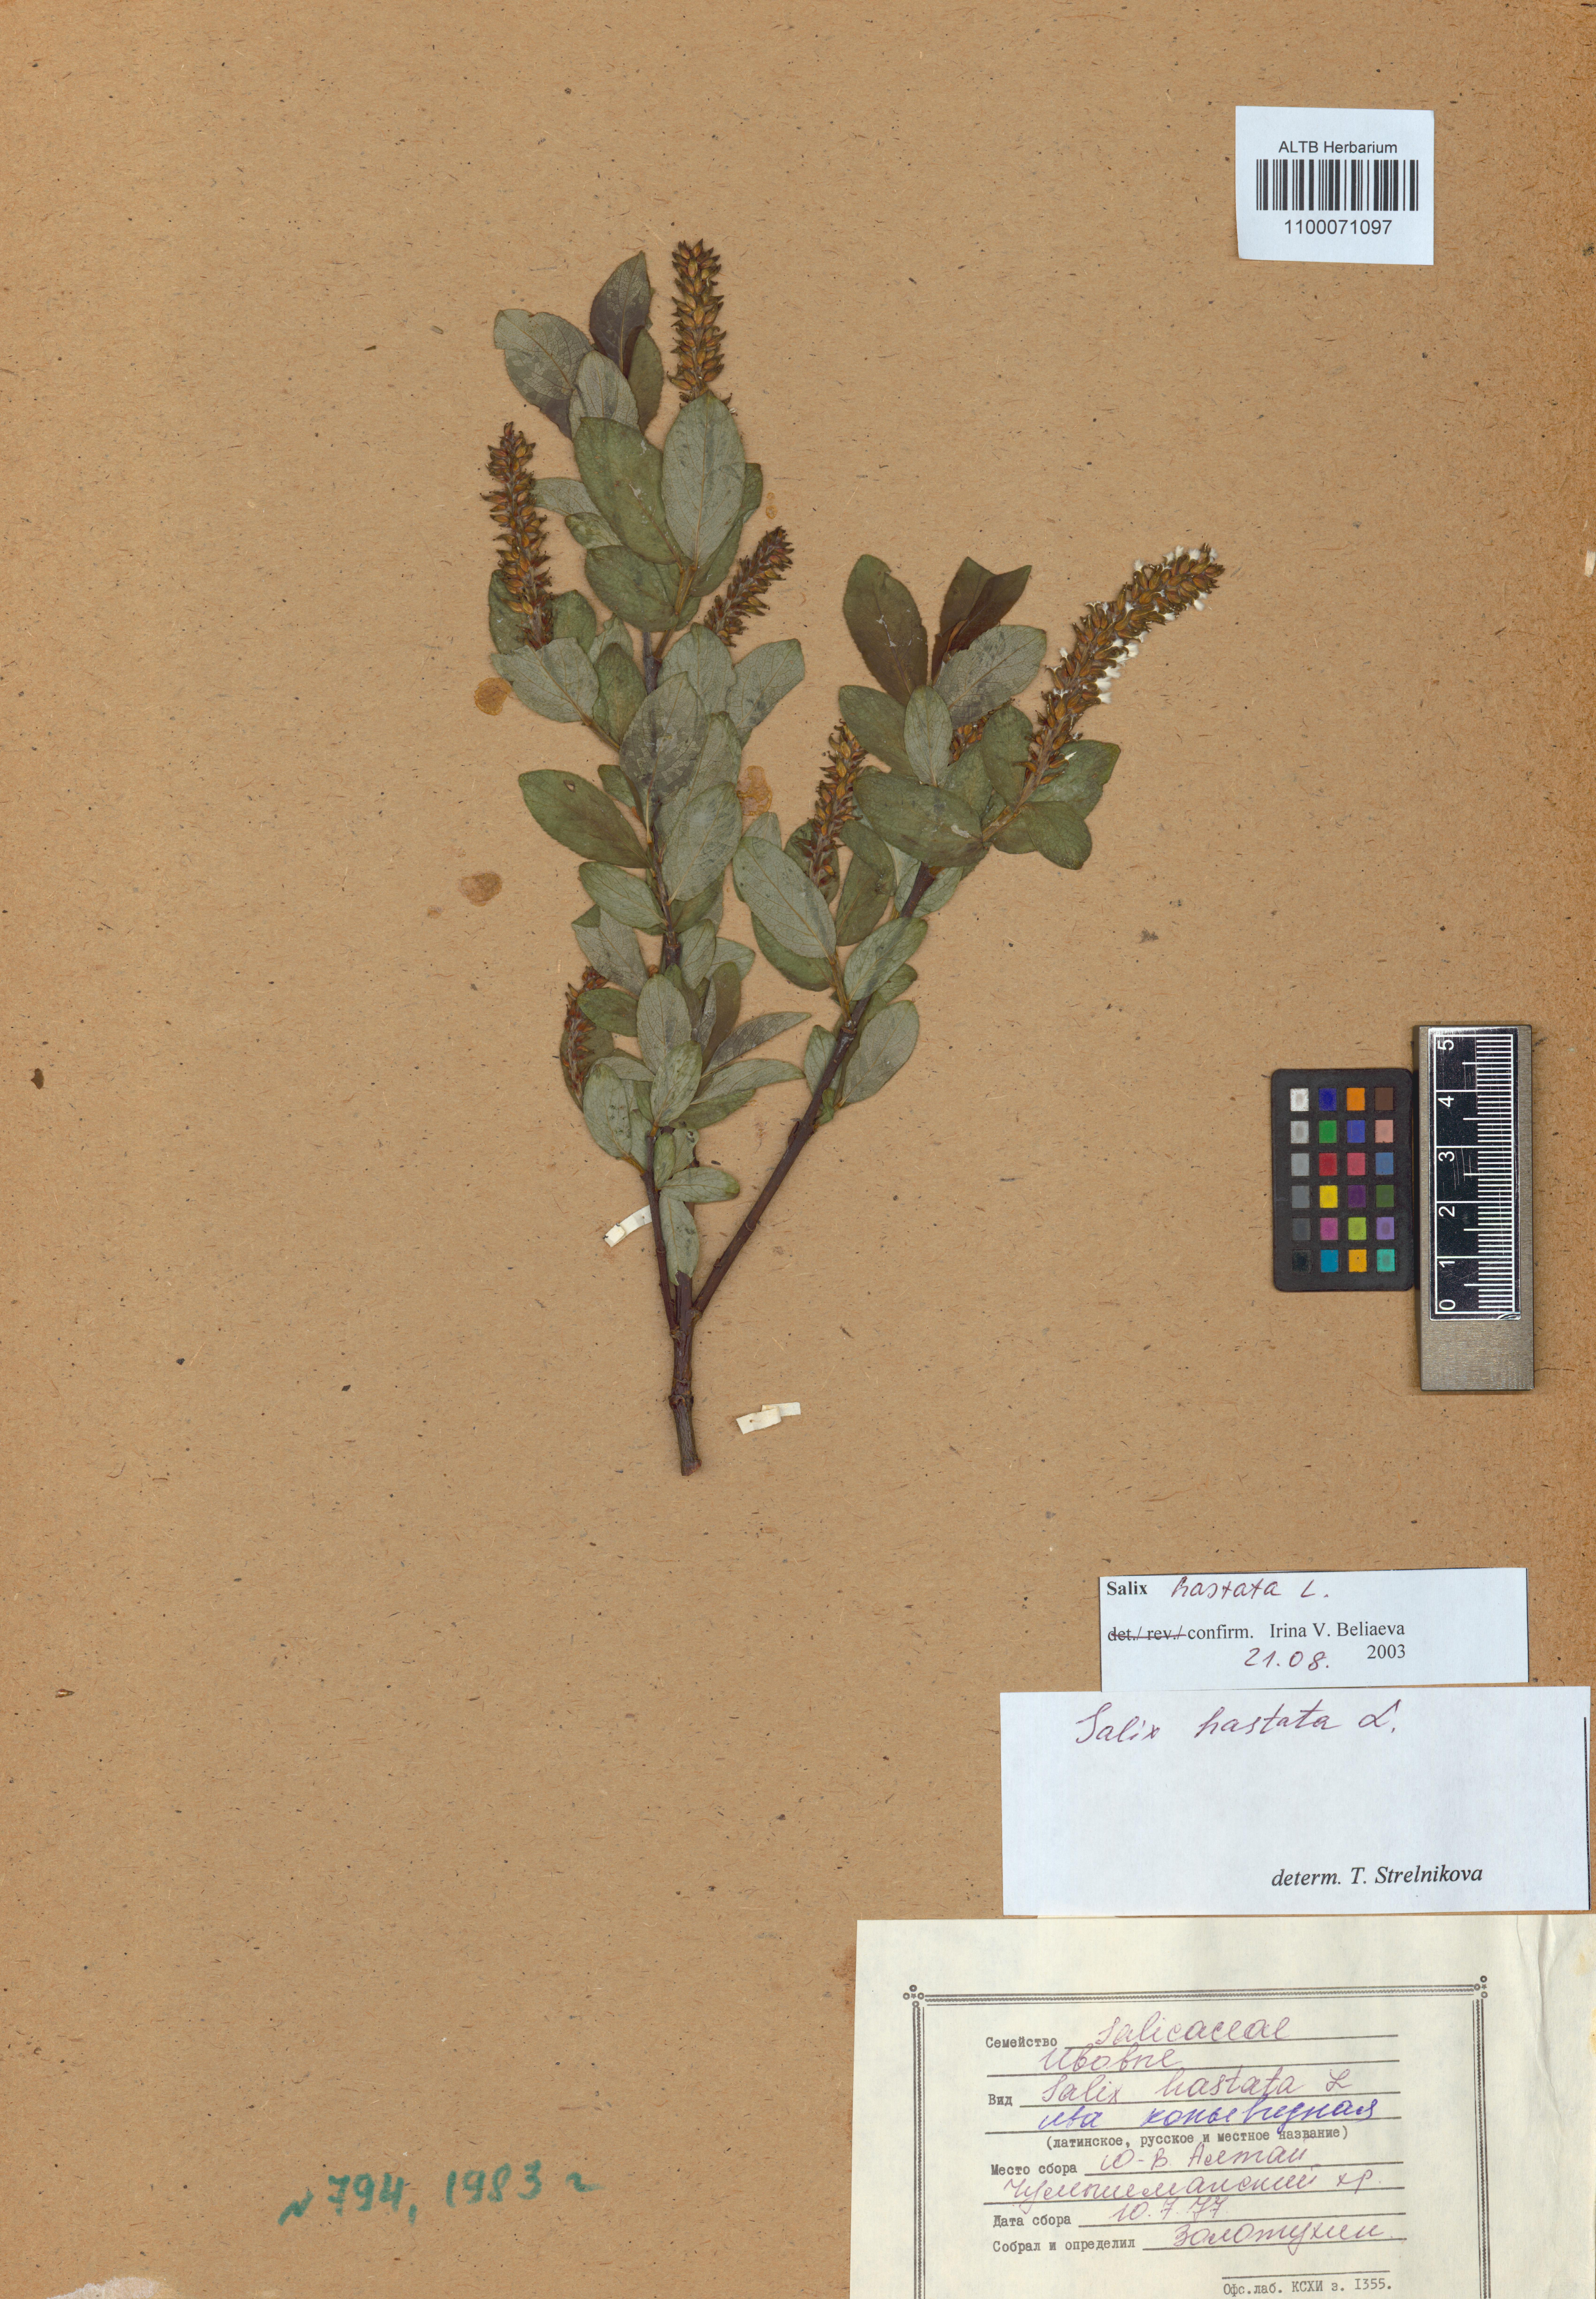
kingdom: Plantae
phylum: Tracheophyta
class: Magnoliopsida
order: Malpighiales
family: Salicaceae
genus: Salix
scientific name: Salix hastata
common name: Halberd willow
